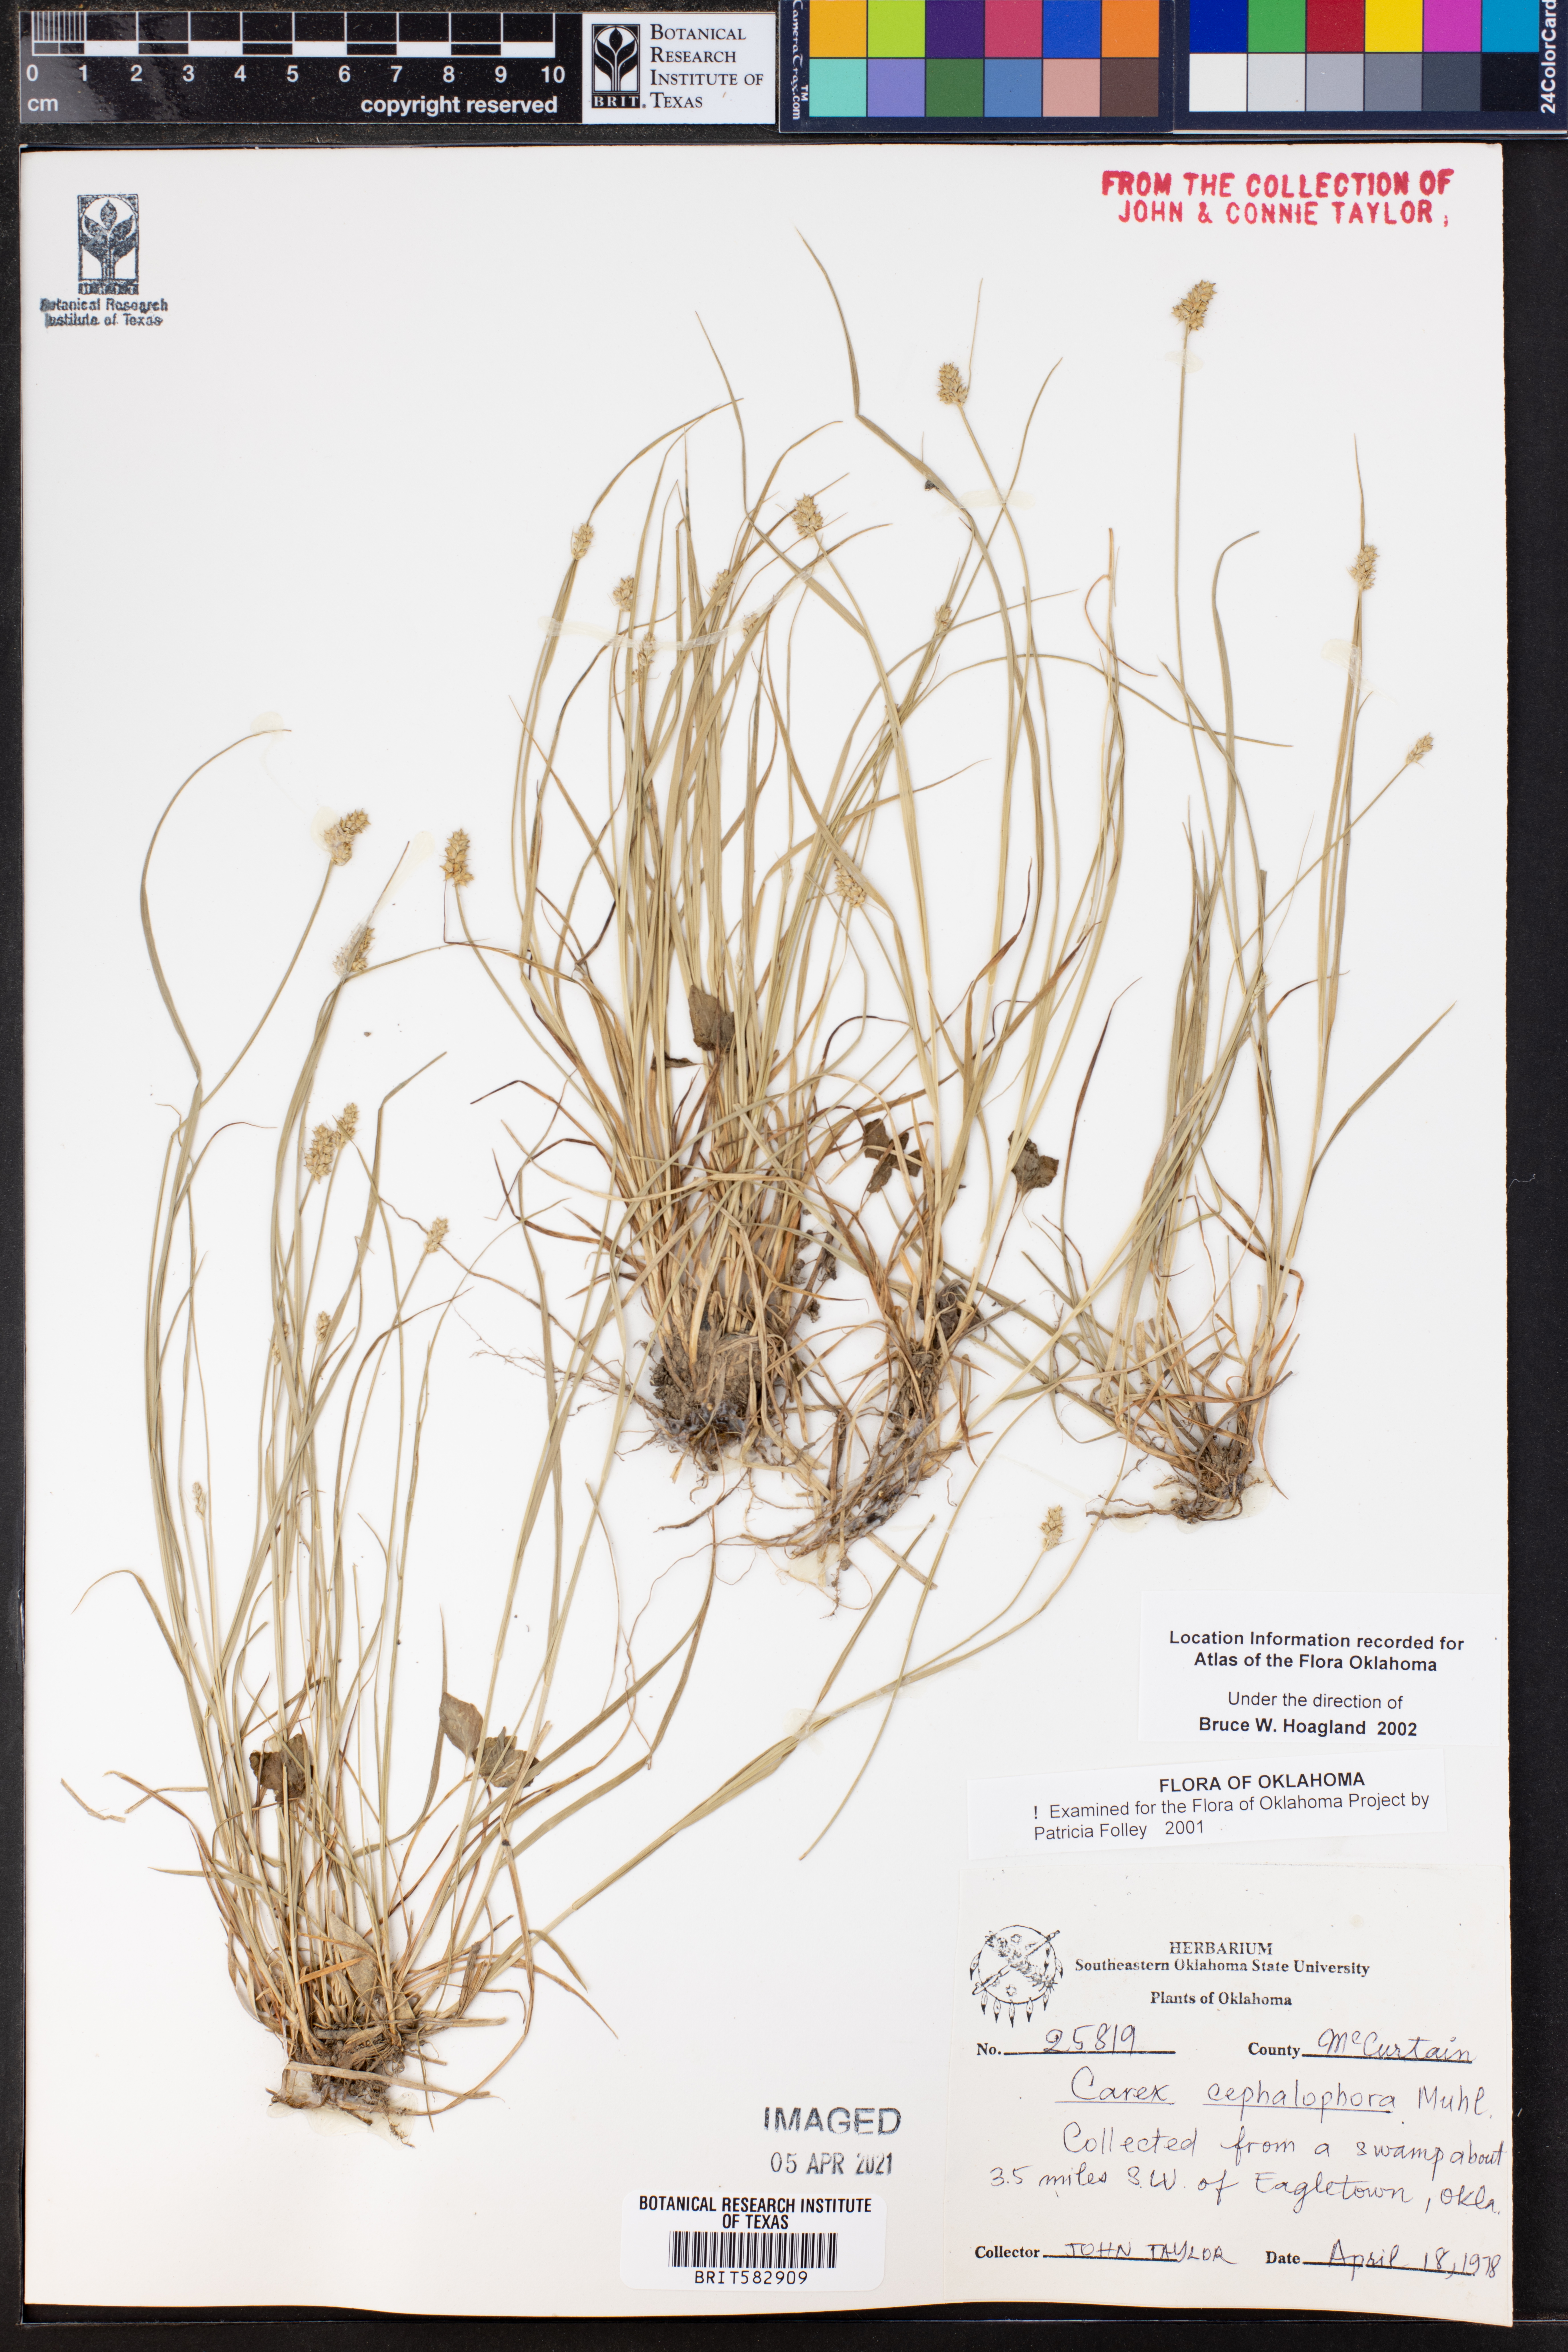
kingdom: Plantae
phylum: Tracheophyta
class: Liliopsida
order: Poales
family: Cyperaceae
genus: Carex
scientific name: Carex cephalophora
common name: Oval-headed sedge
